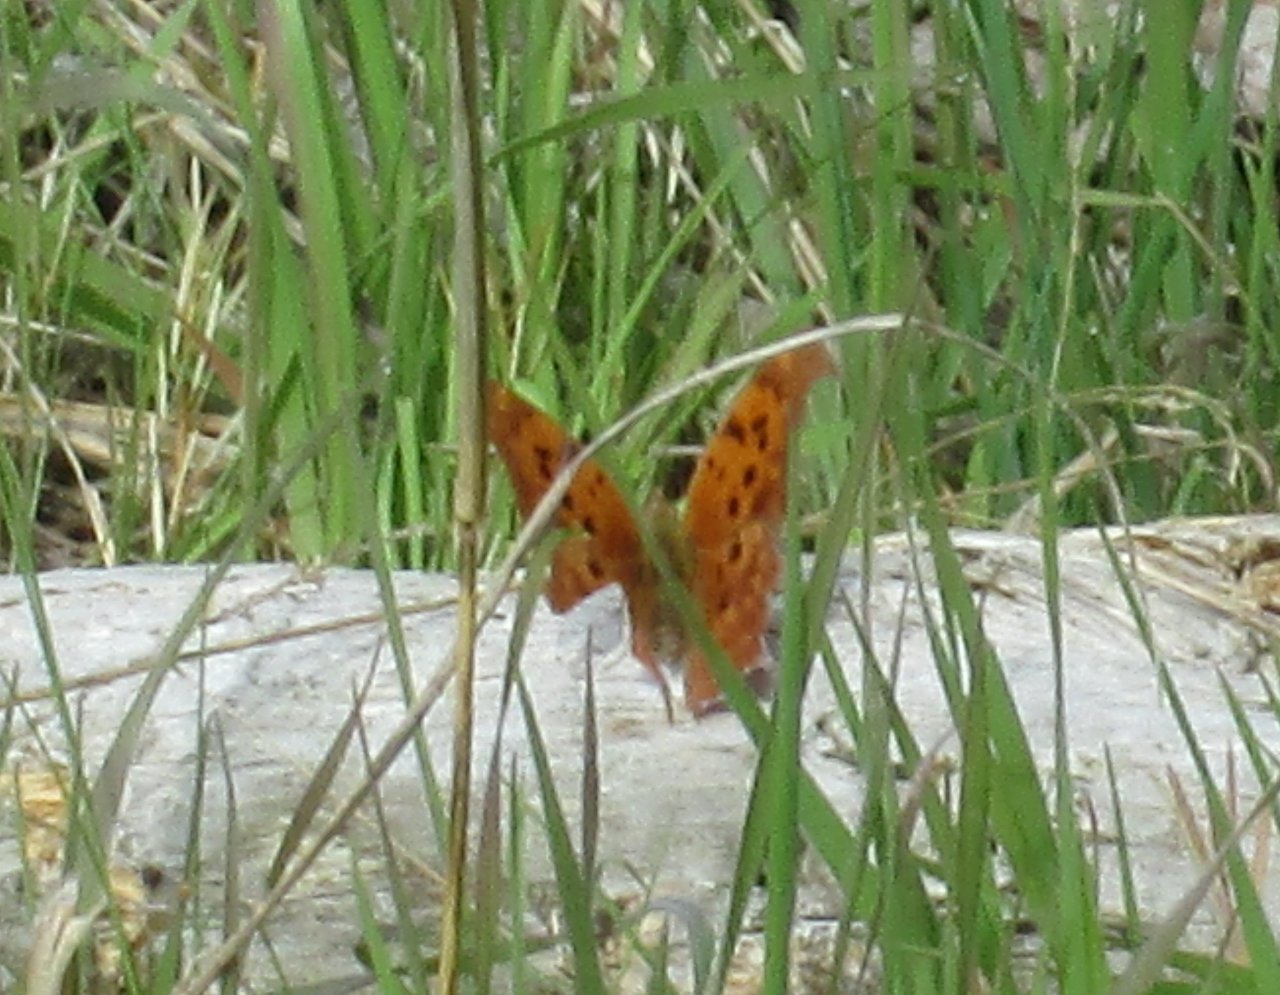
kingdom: Animalia
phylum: Arthropoda
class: Insecta
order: Lepidoptera
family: Nymphalidae
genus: Polygonia
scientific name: Polygonia interrogationis
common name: Question Mark
